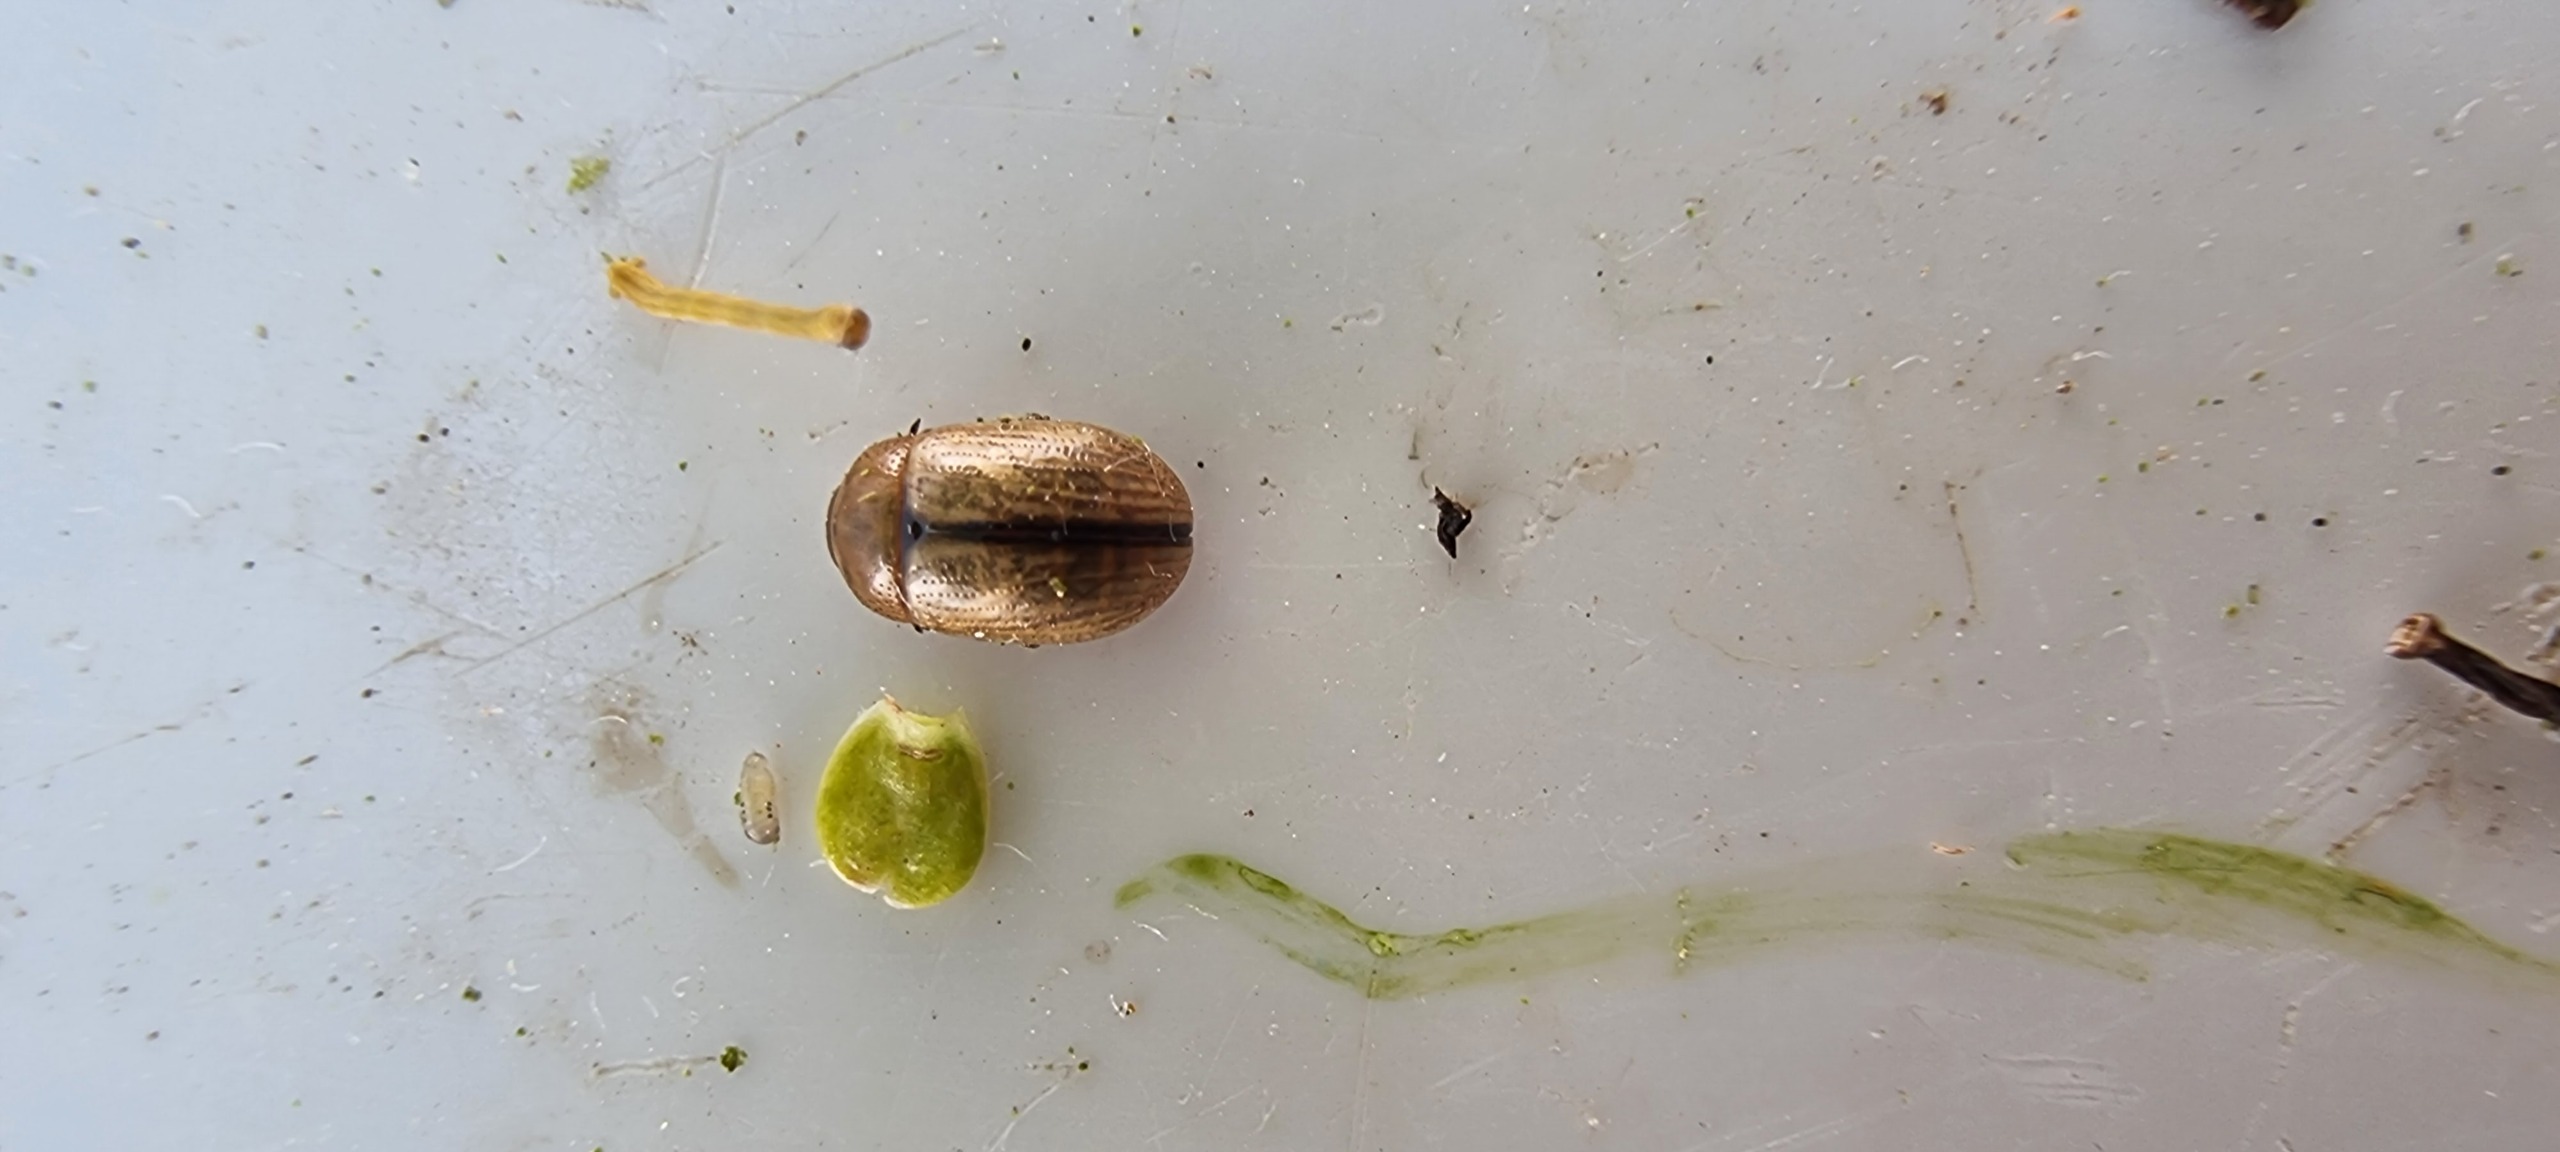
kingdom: Animalia
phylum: Arthropoda
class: Insecta
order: Coleoptera
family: Chrysomelidae
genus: Gonioctena
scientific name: Gonioctena olivacea
